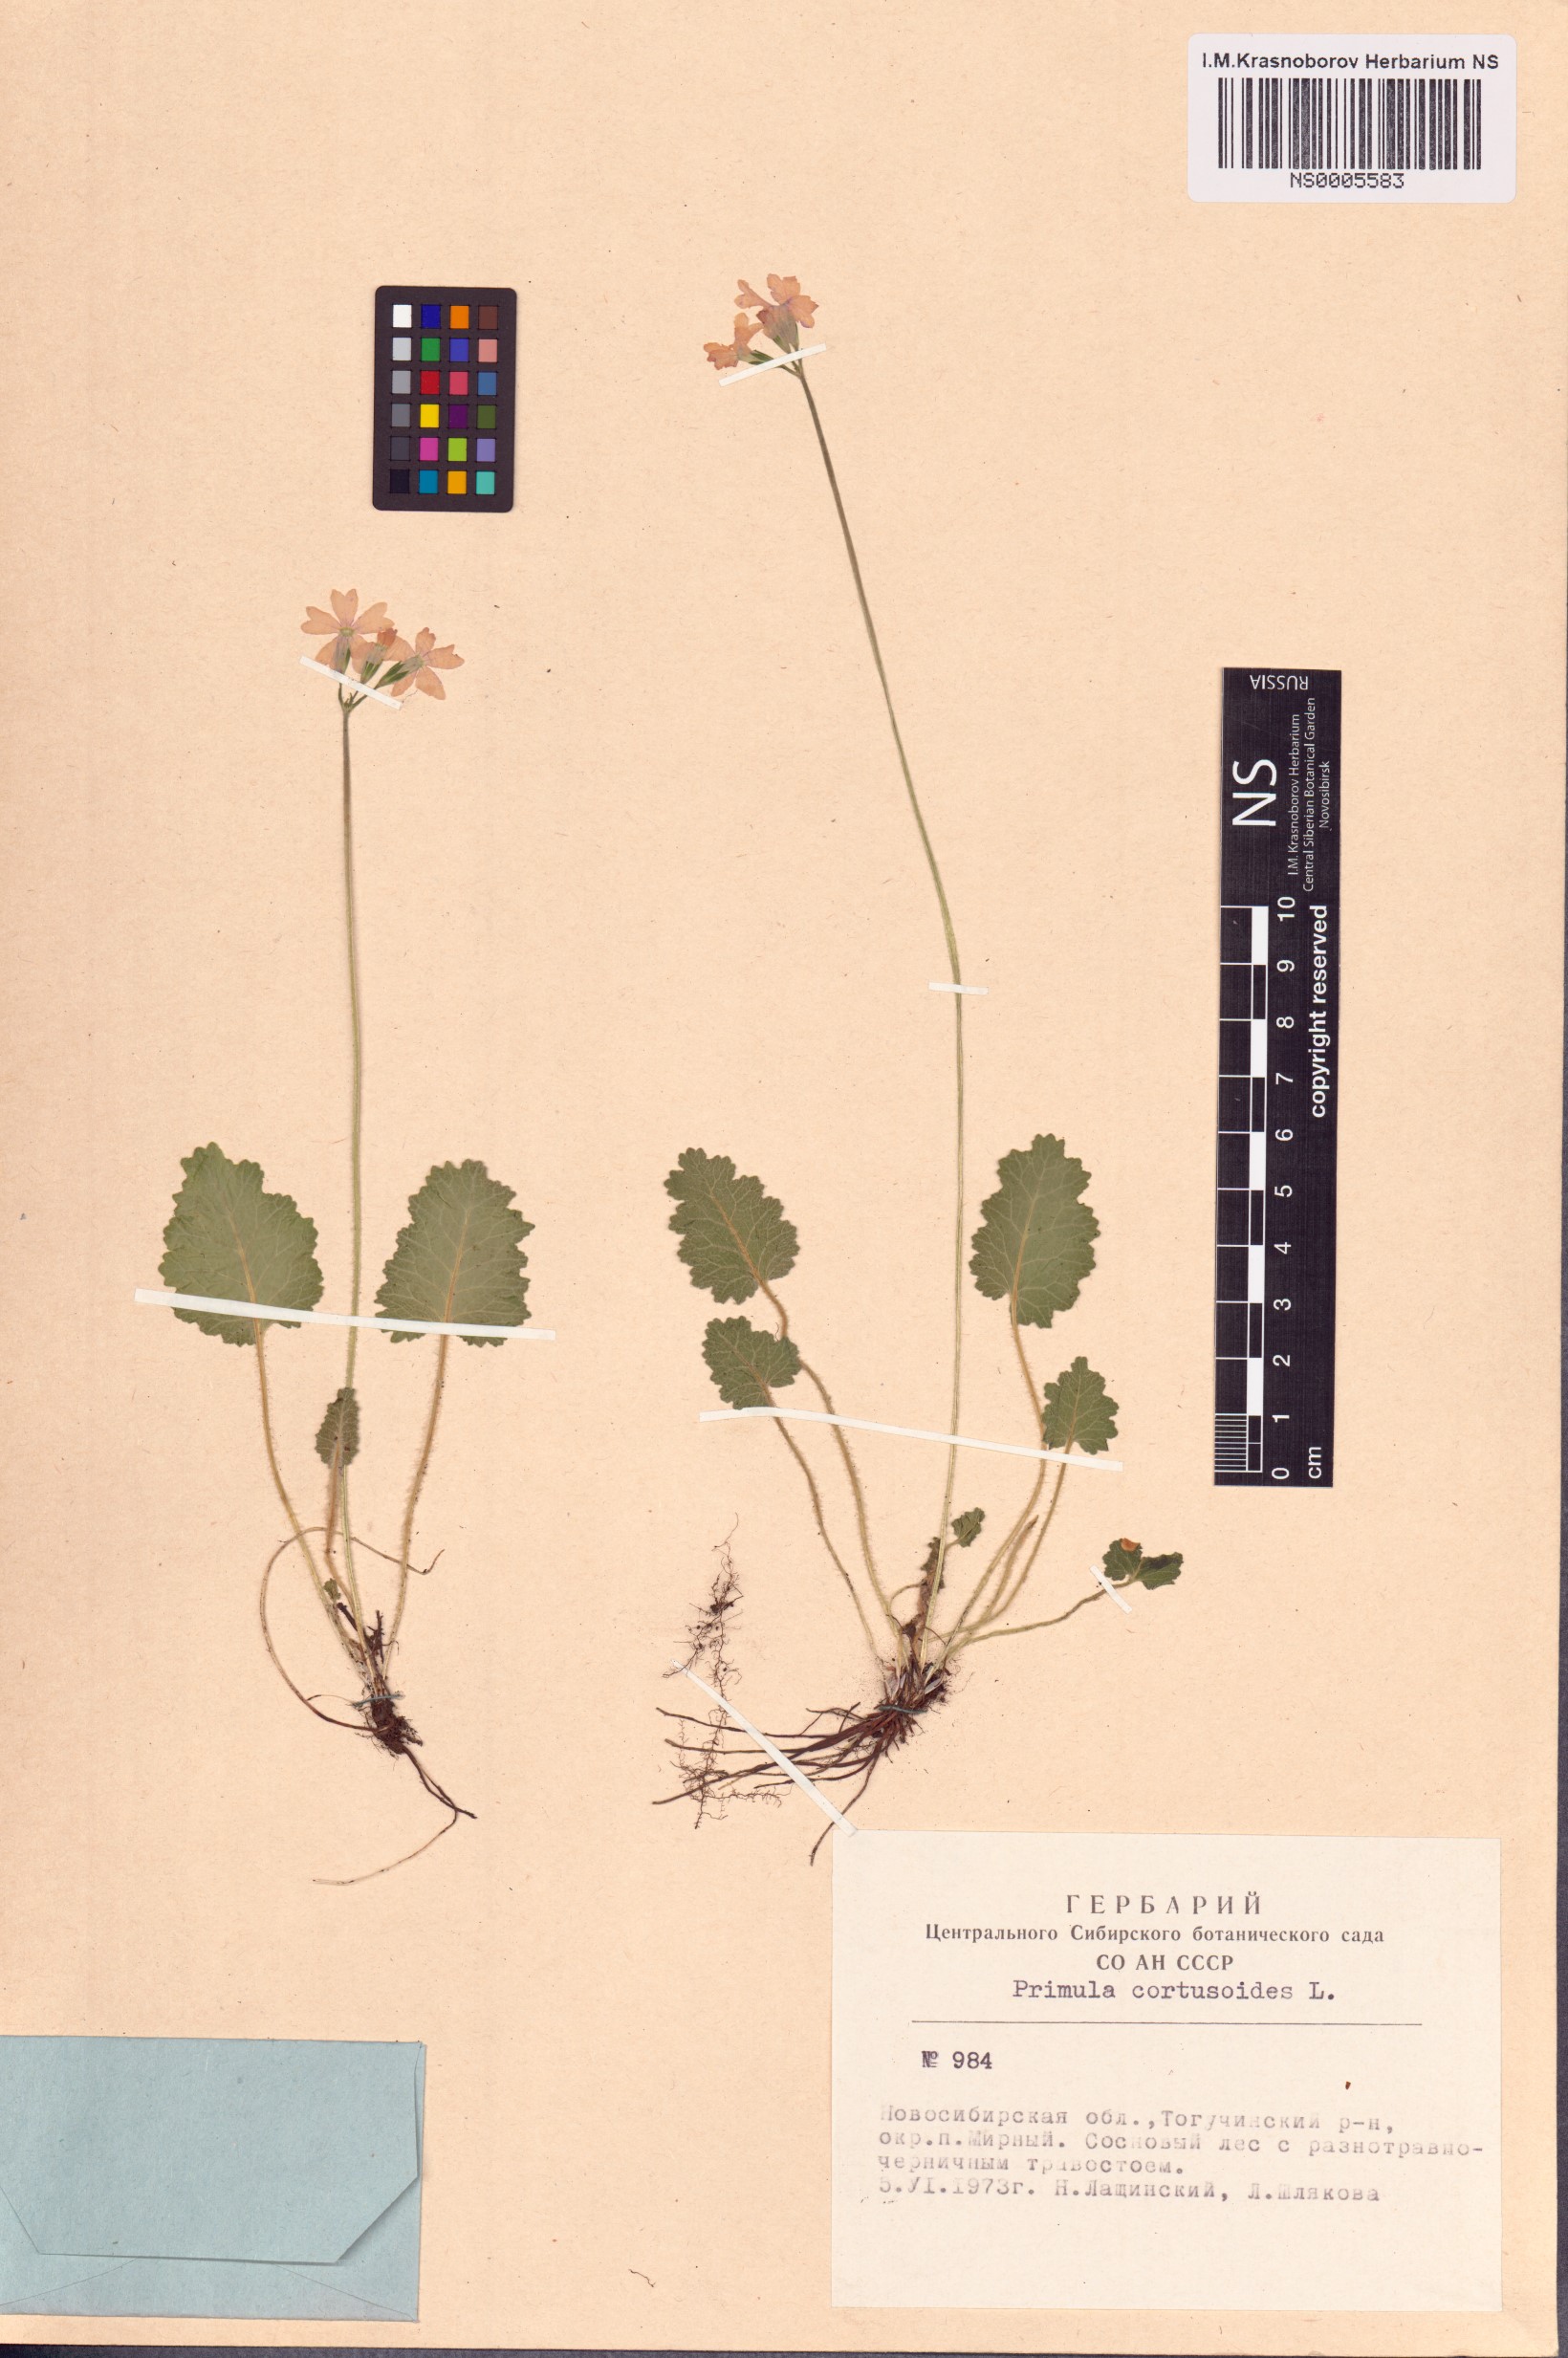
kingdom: Plantae
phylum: Tracheophyta
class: Magnoliopsida
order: Ericales
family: Primulaceae
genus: Primula
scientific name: Primula cortusoides
